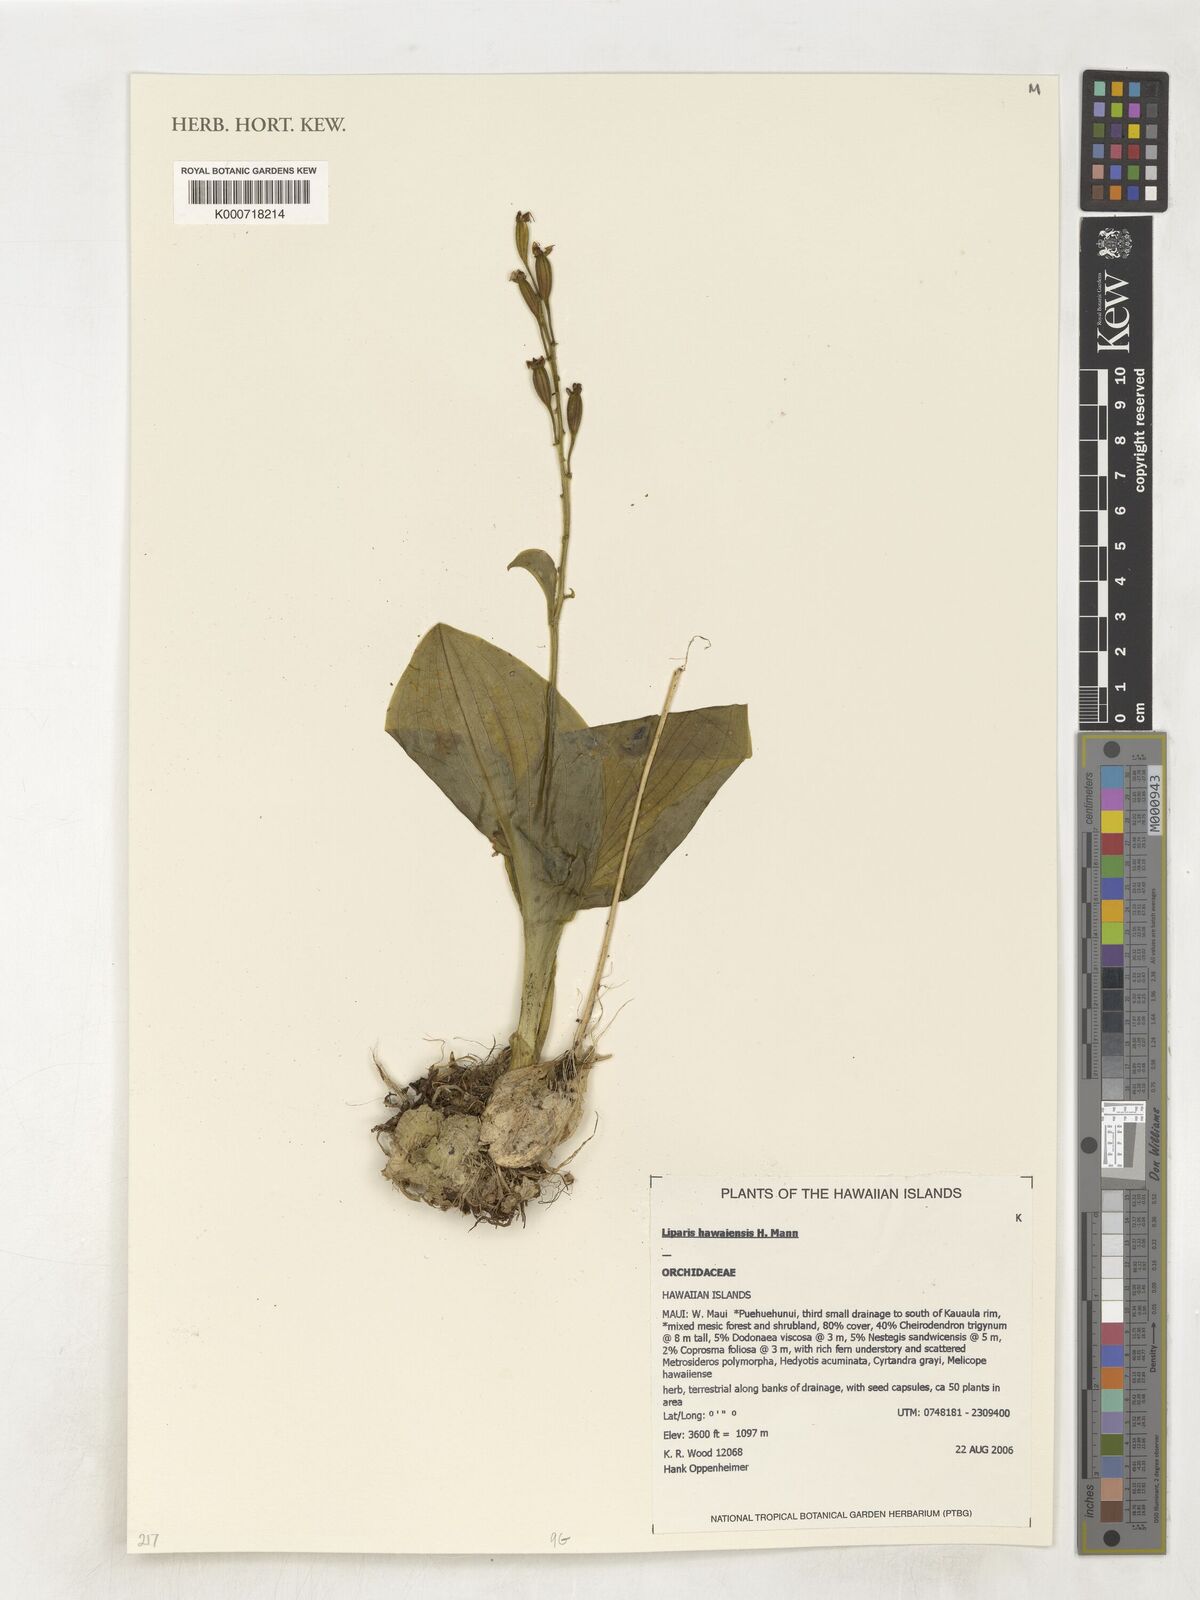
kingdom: Plantae
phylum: Tracheophyta
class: Liliopsida
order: Asparagales
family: Orchidaceae
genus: Liparis
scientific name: Liparis hawaiensis
